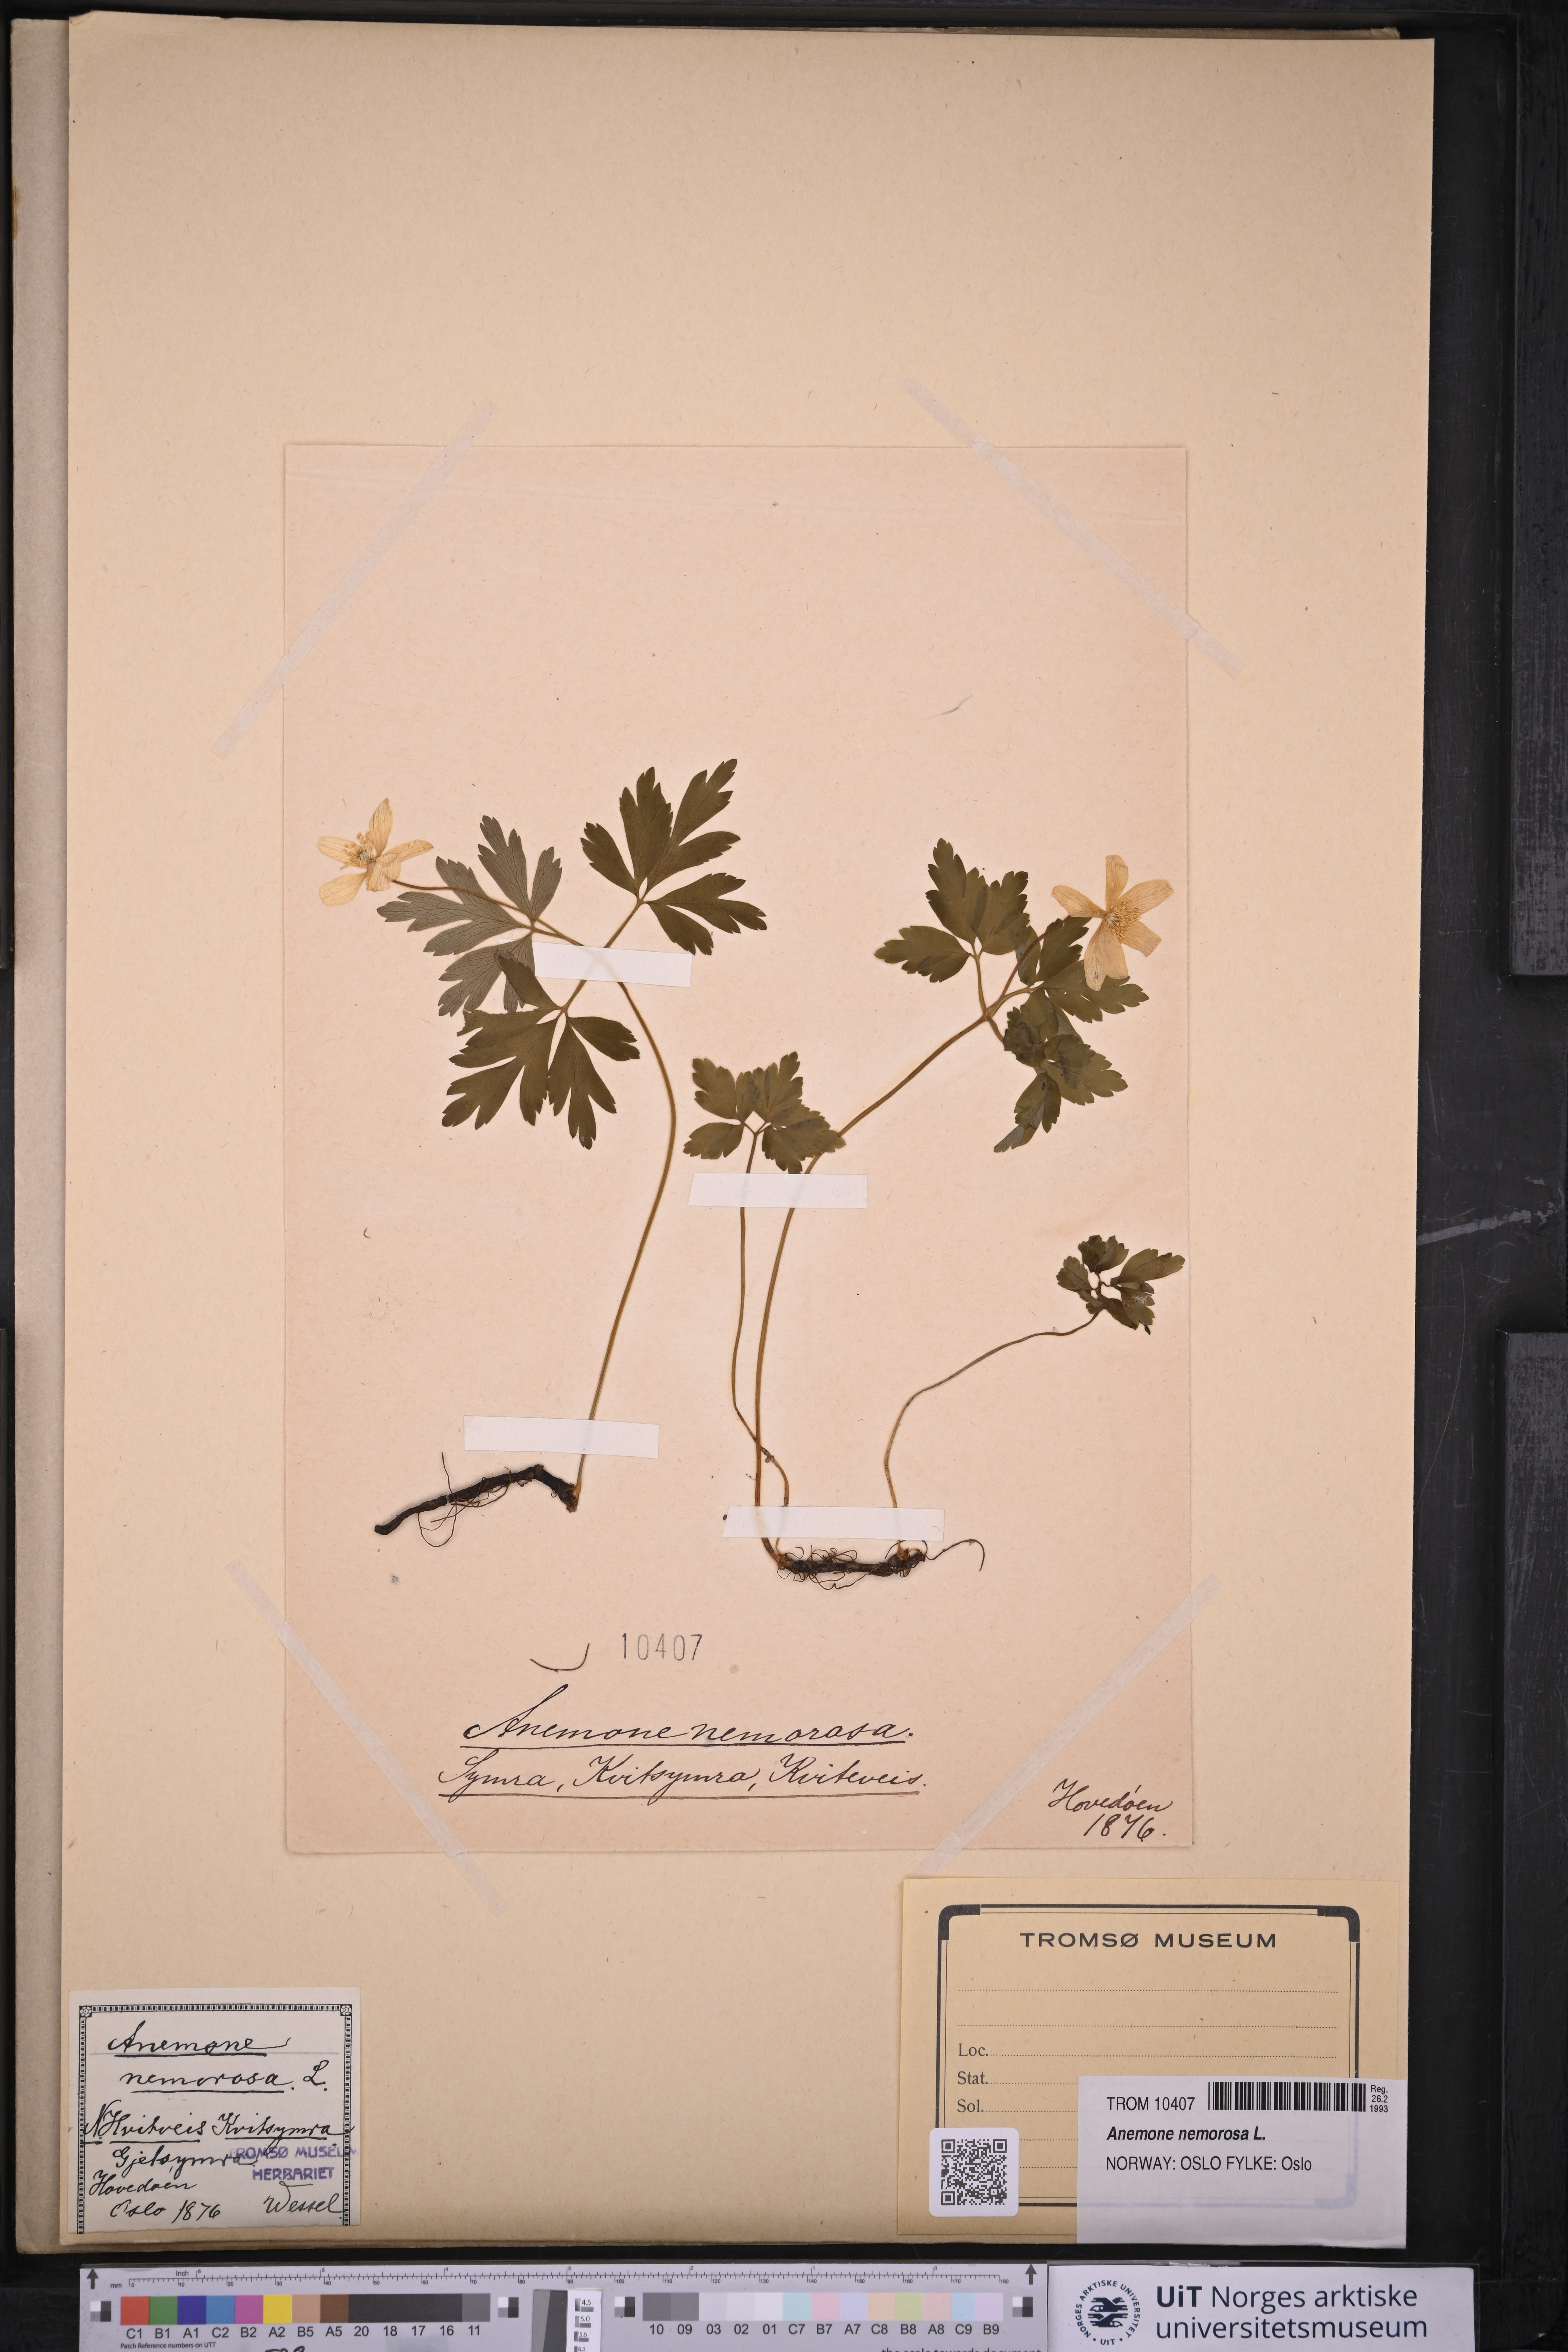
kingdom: Plantae
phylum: Tracheophyta
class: Magnoliopsida
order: Ranunculales
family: Ranunculaceae
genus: Anemone
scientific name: Anemone nemorosa
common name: Wood anemone
